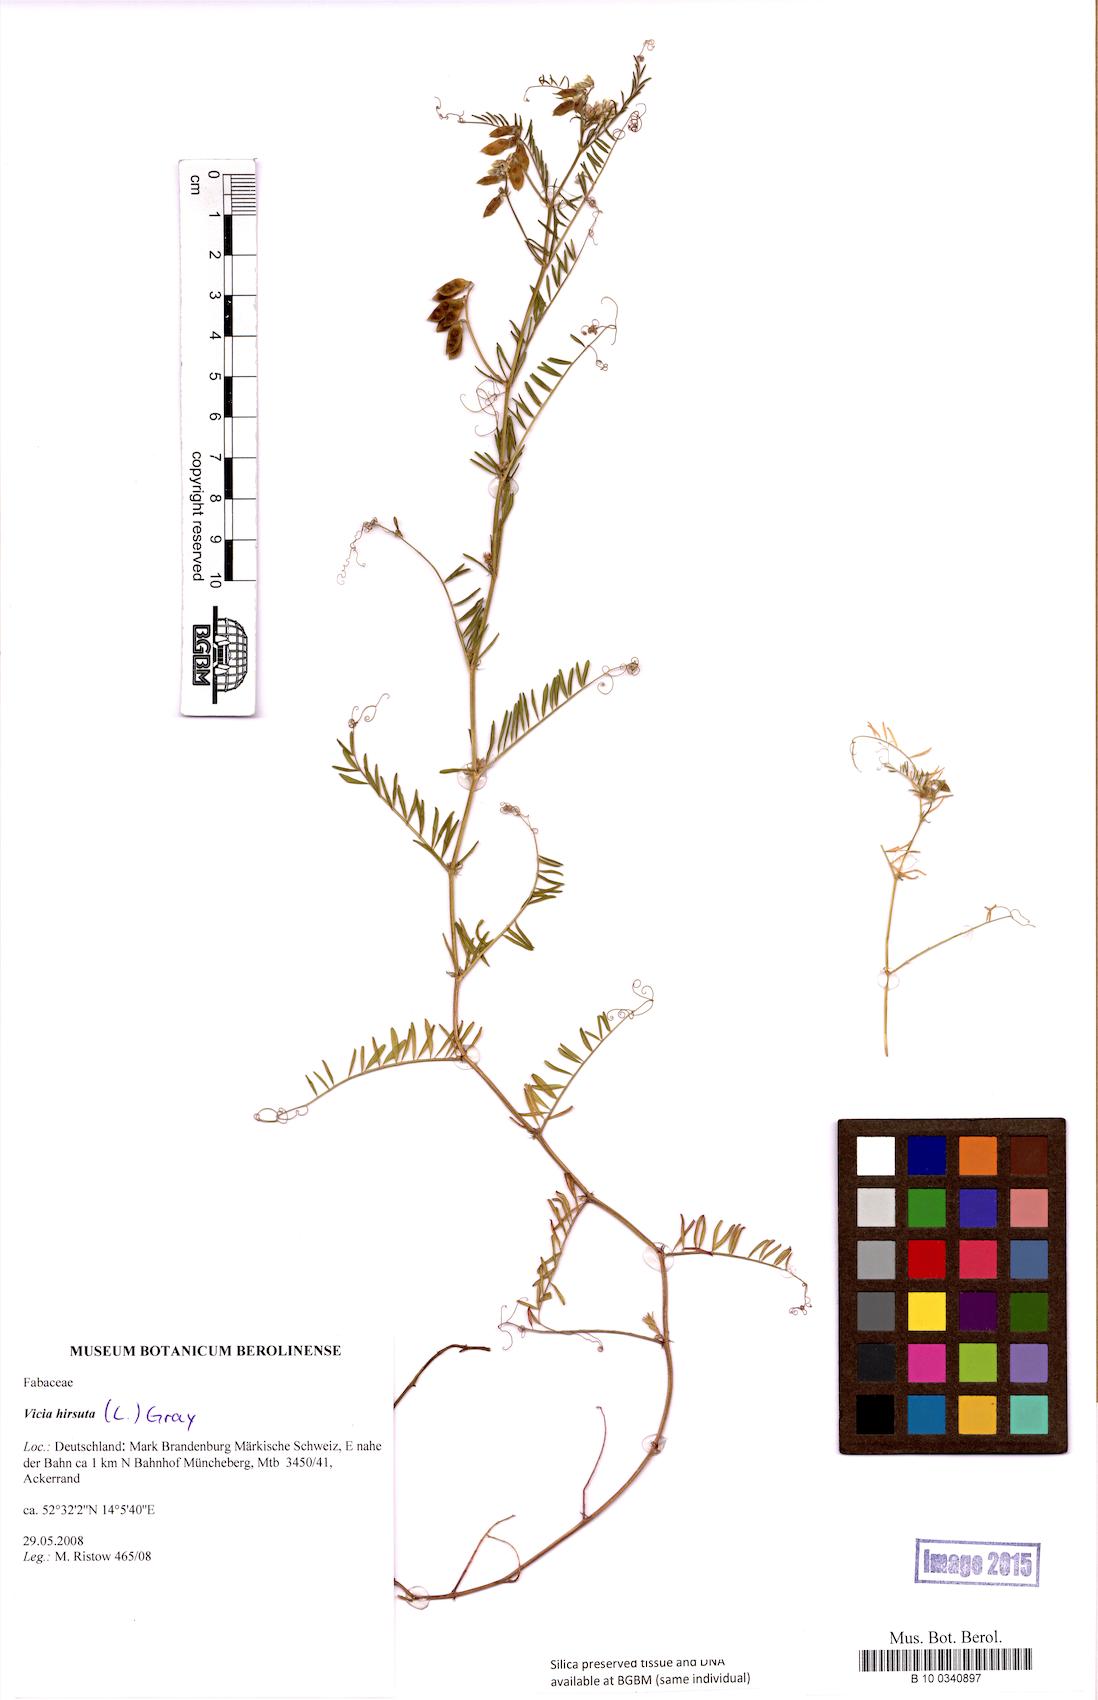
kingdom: Plantae
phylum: Tracheophyta
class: Magnoliopsida
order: Fabales
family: Fabaceae
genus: Vicia
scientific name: Vicia hirsuta
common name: Tiny vetch
